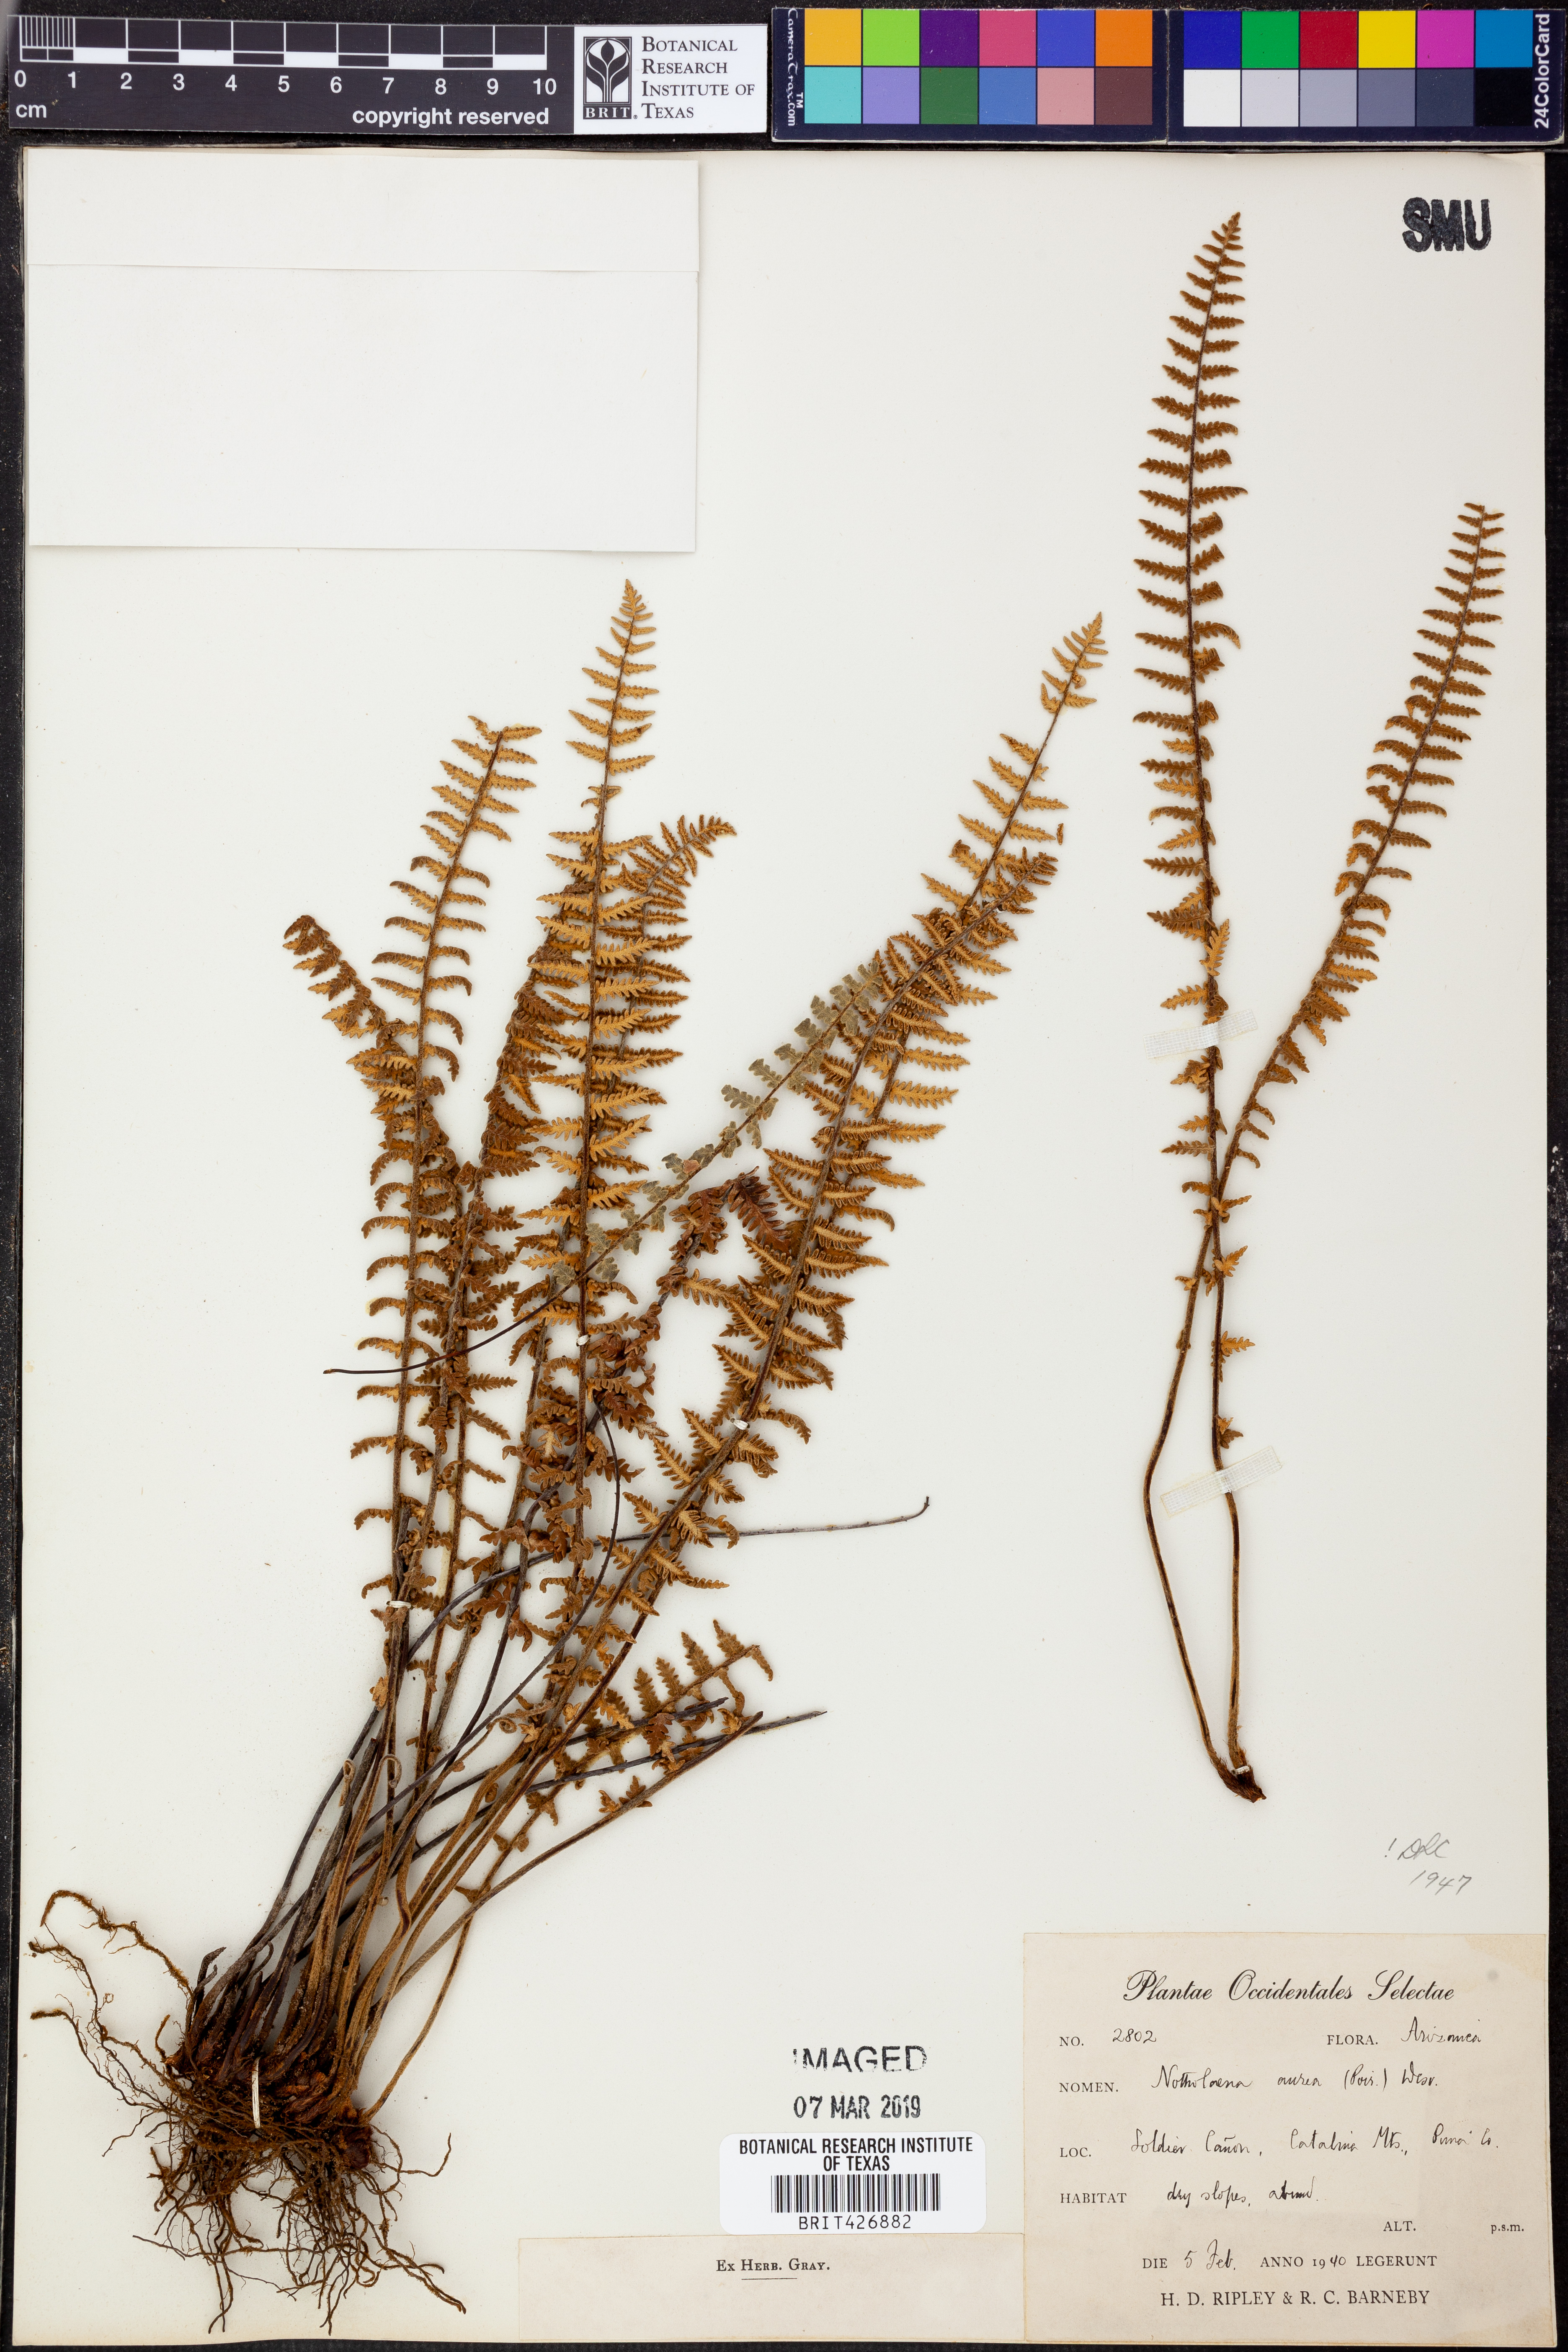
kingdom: Plantae
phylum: Tracheophyta
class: Polypodiopsida
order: Polypodiales
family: Pteridaceae
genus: Myriopteris
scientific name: Myriopteris aurea
